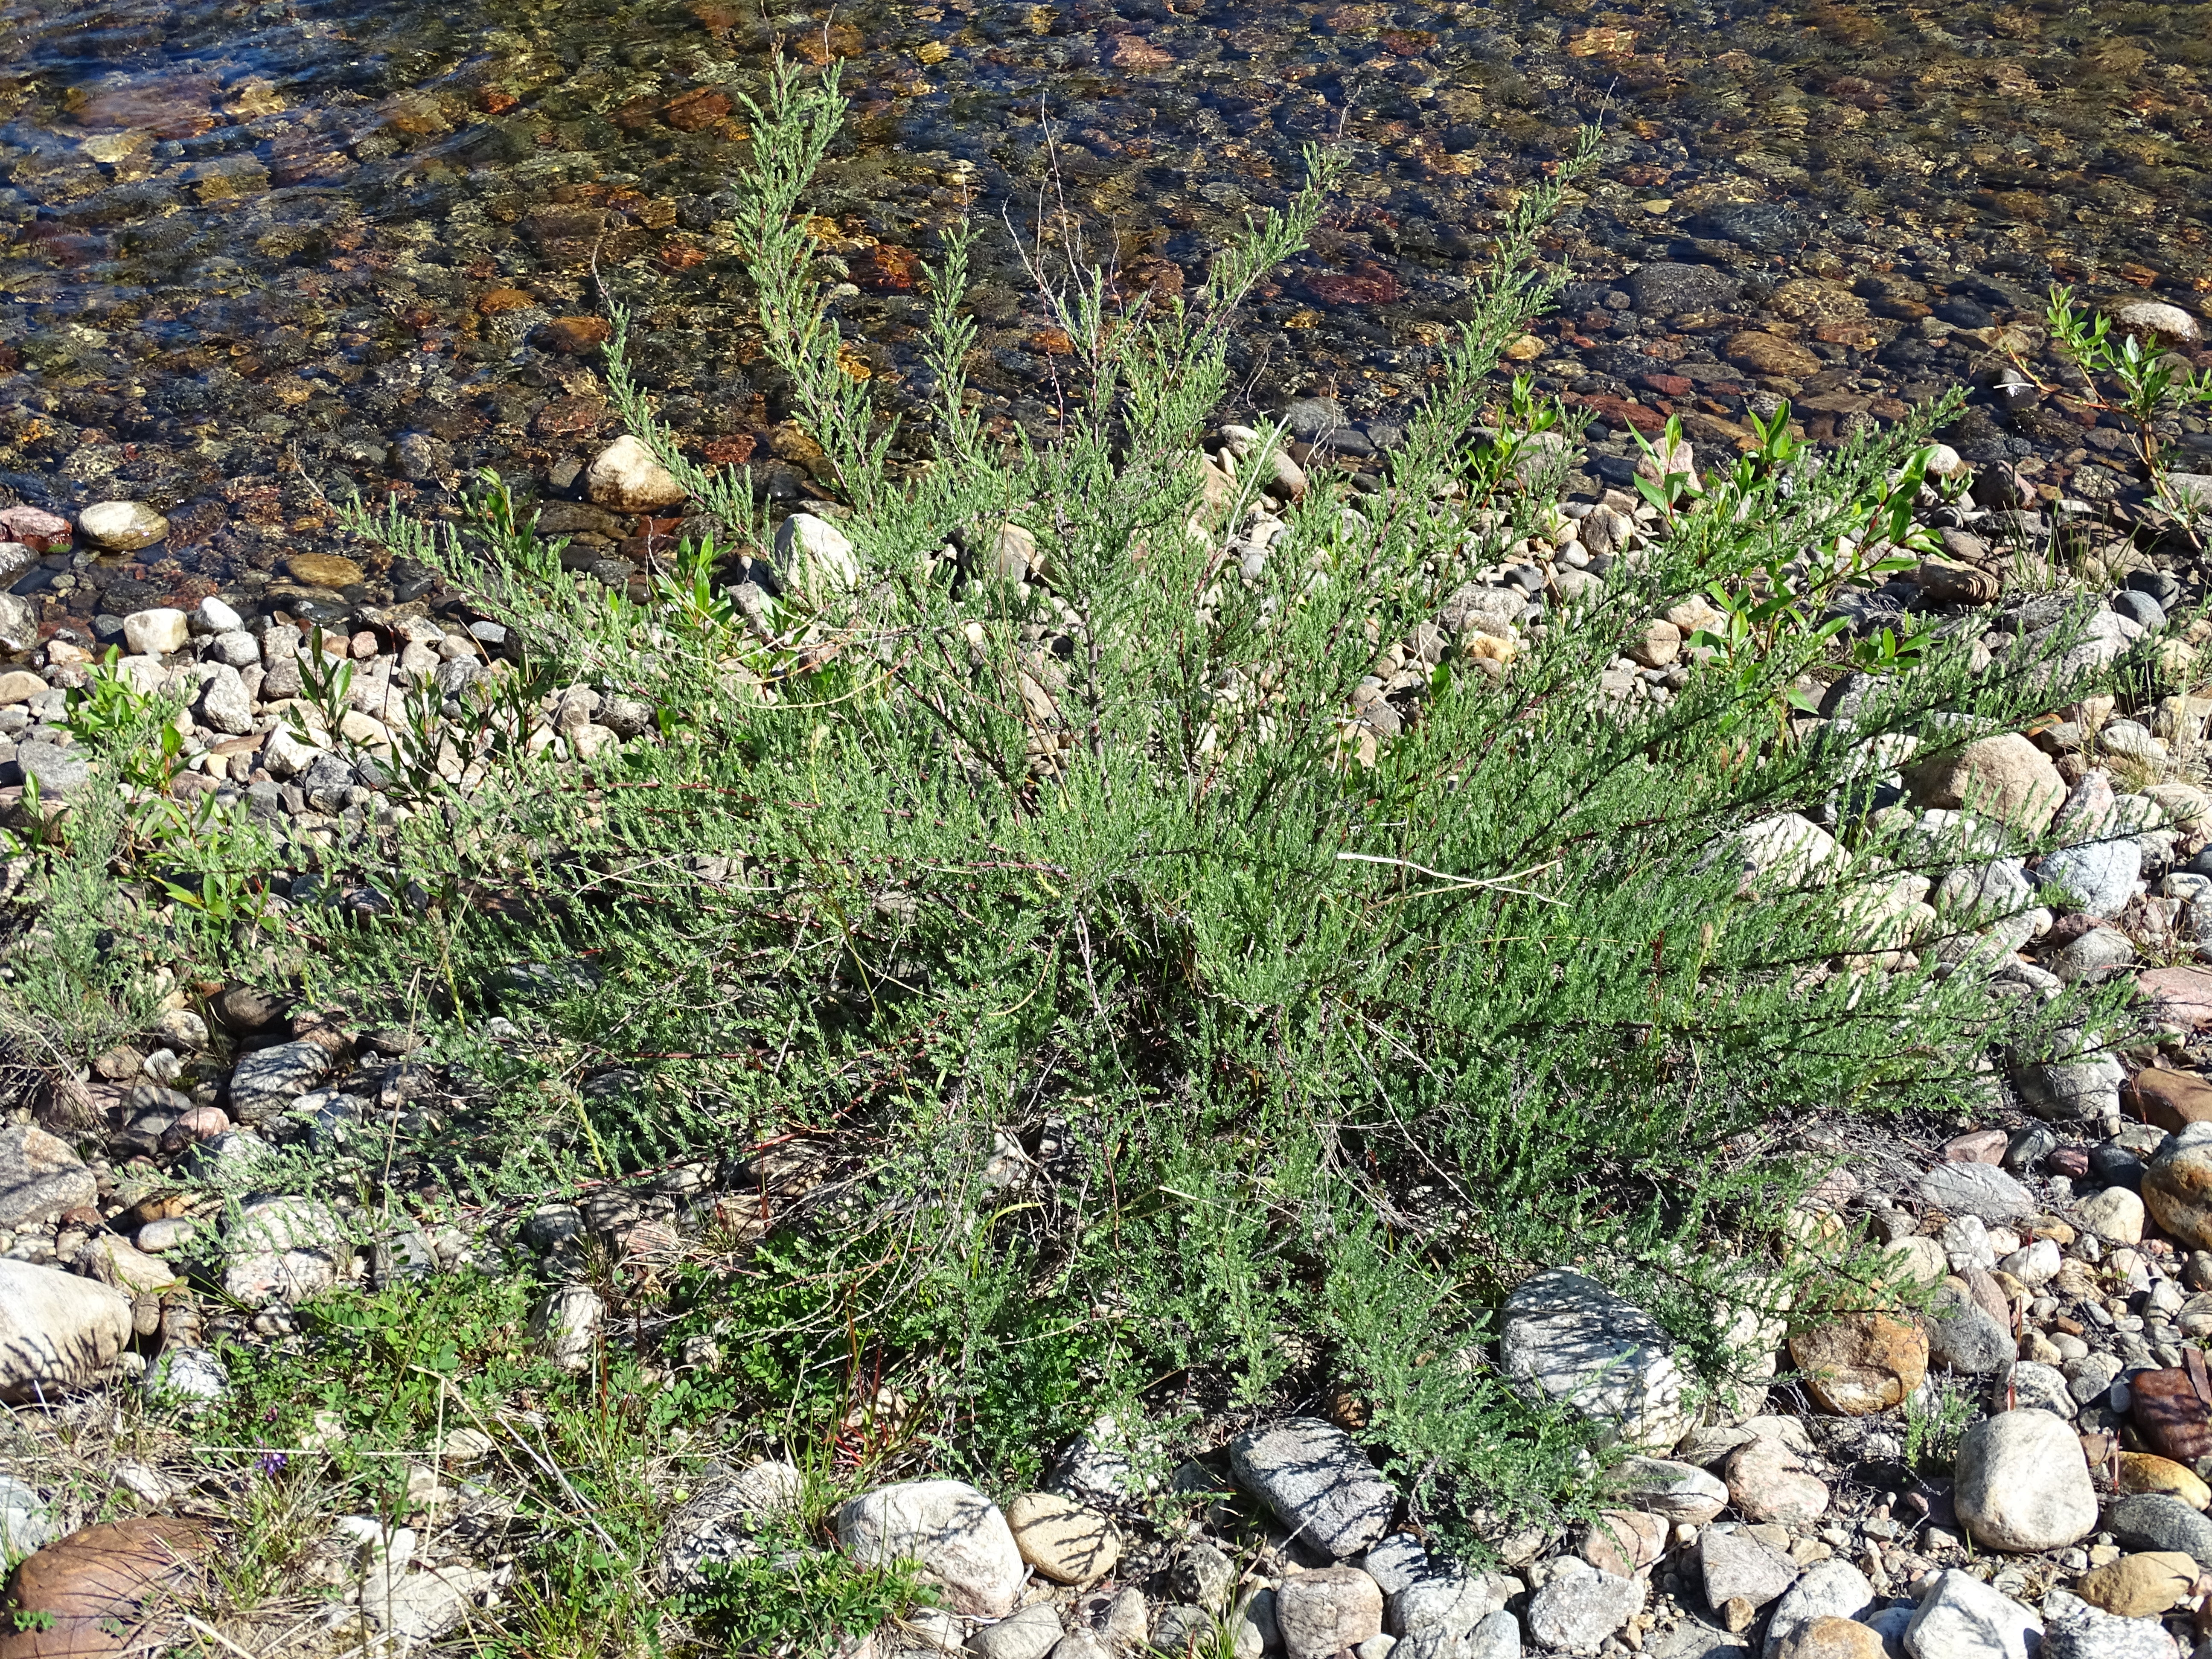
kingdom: Plantae
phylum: Tracheophyta
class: Magnoliopsida
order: Caryophyllales
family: Tamaricaceae
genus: Myricaria
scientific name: Myricaria germanica
